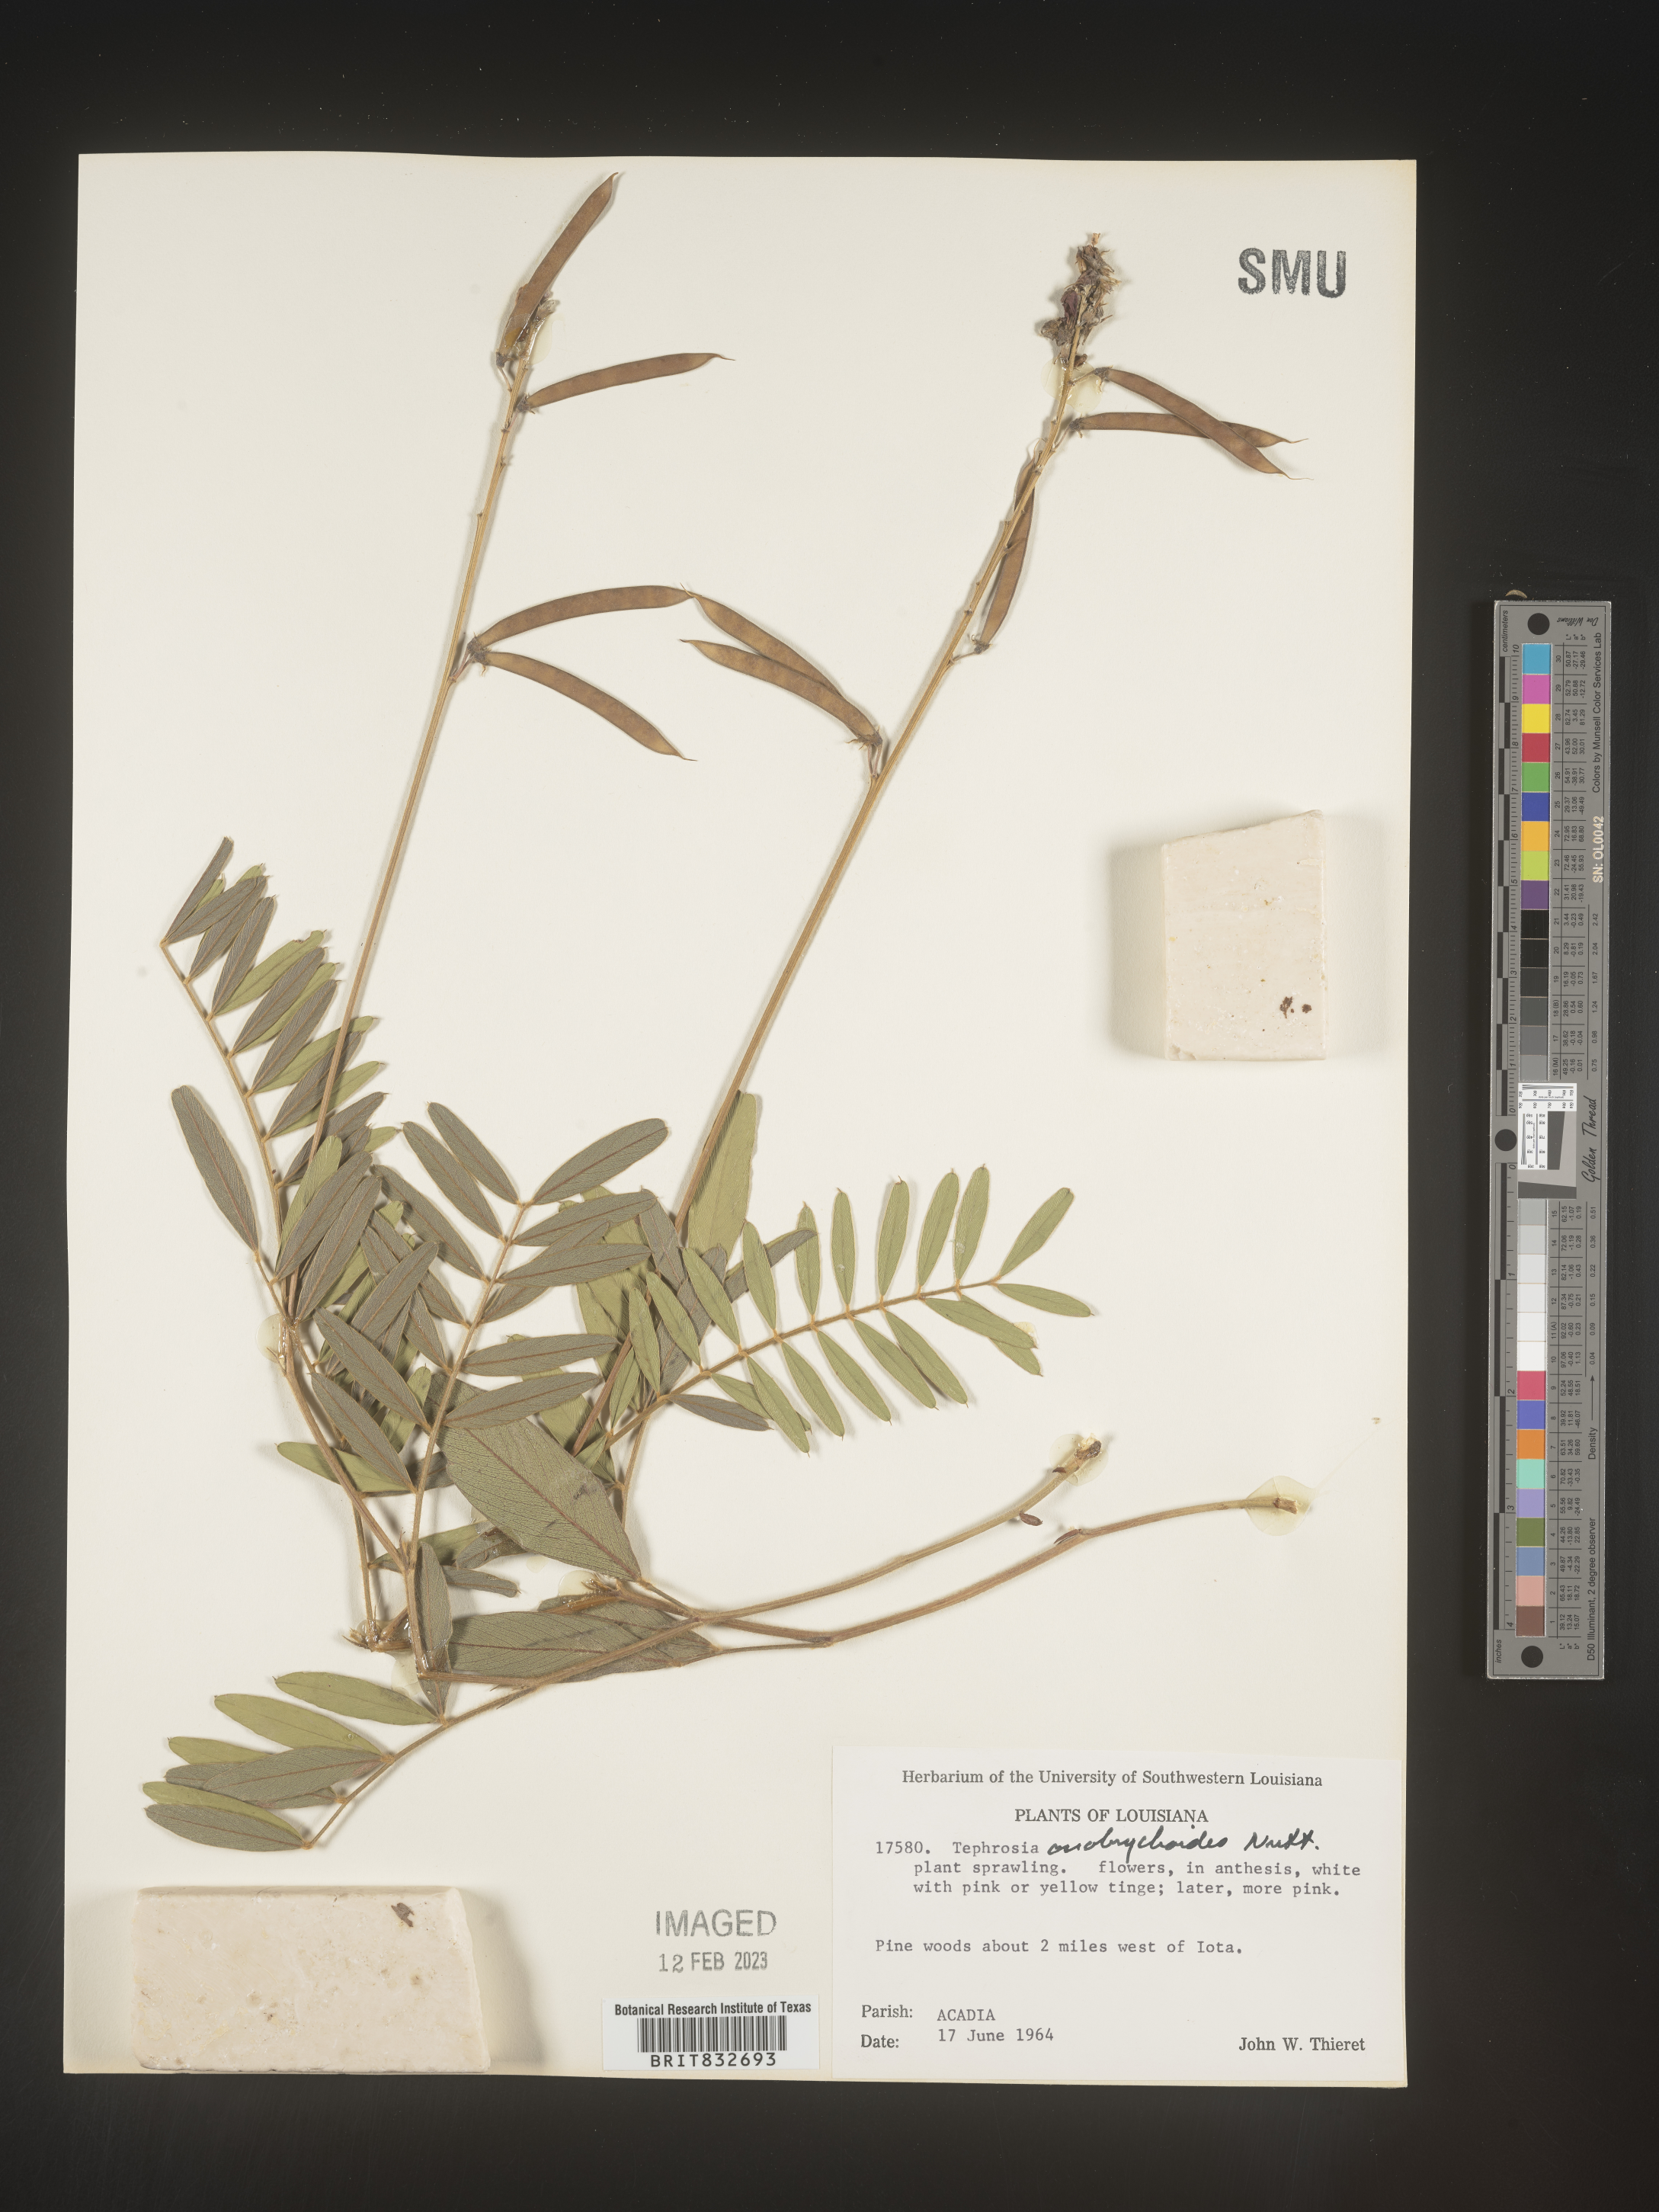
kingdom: Plantae
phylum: Tracheophyta
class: Magnoliopsida
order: Fabales
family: Fabaceae
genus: Tephrosia
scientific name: Tephrosia onobrychoides
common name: Multi-bloom hoary-pea
